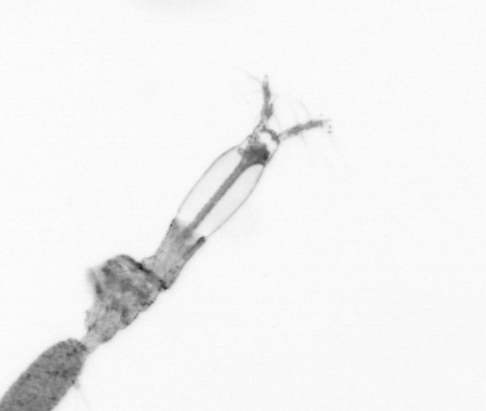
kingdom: Animalia
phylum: Arthropoda
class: Copepoda
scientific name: Copepoda
